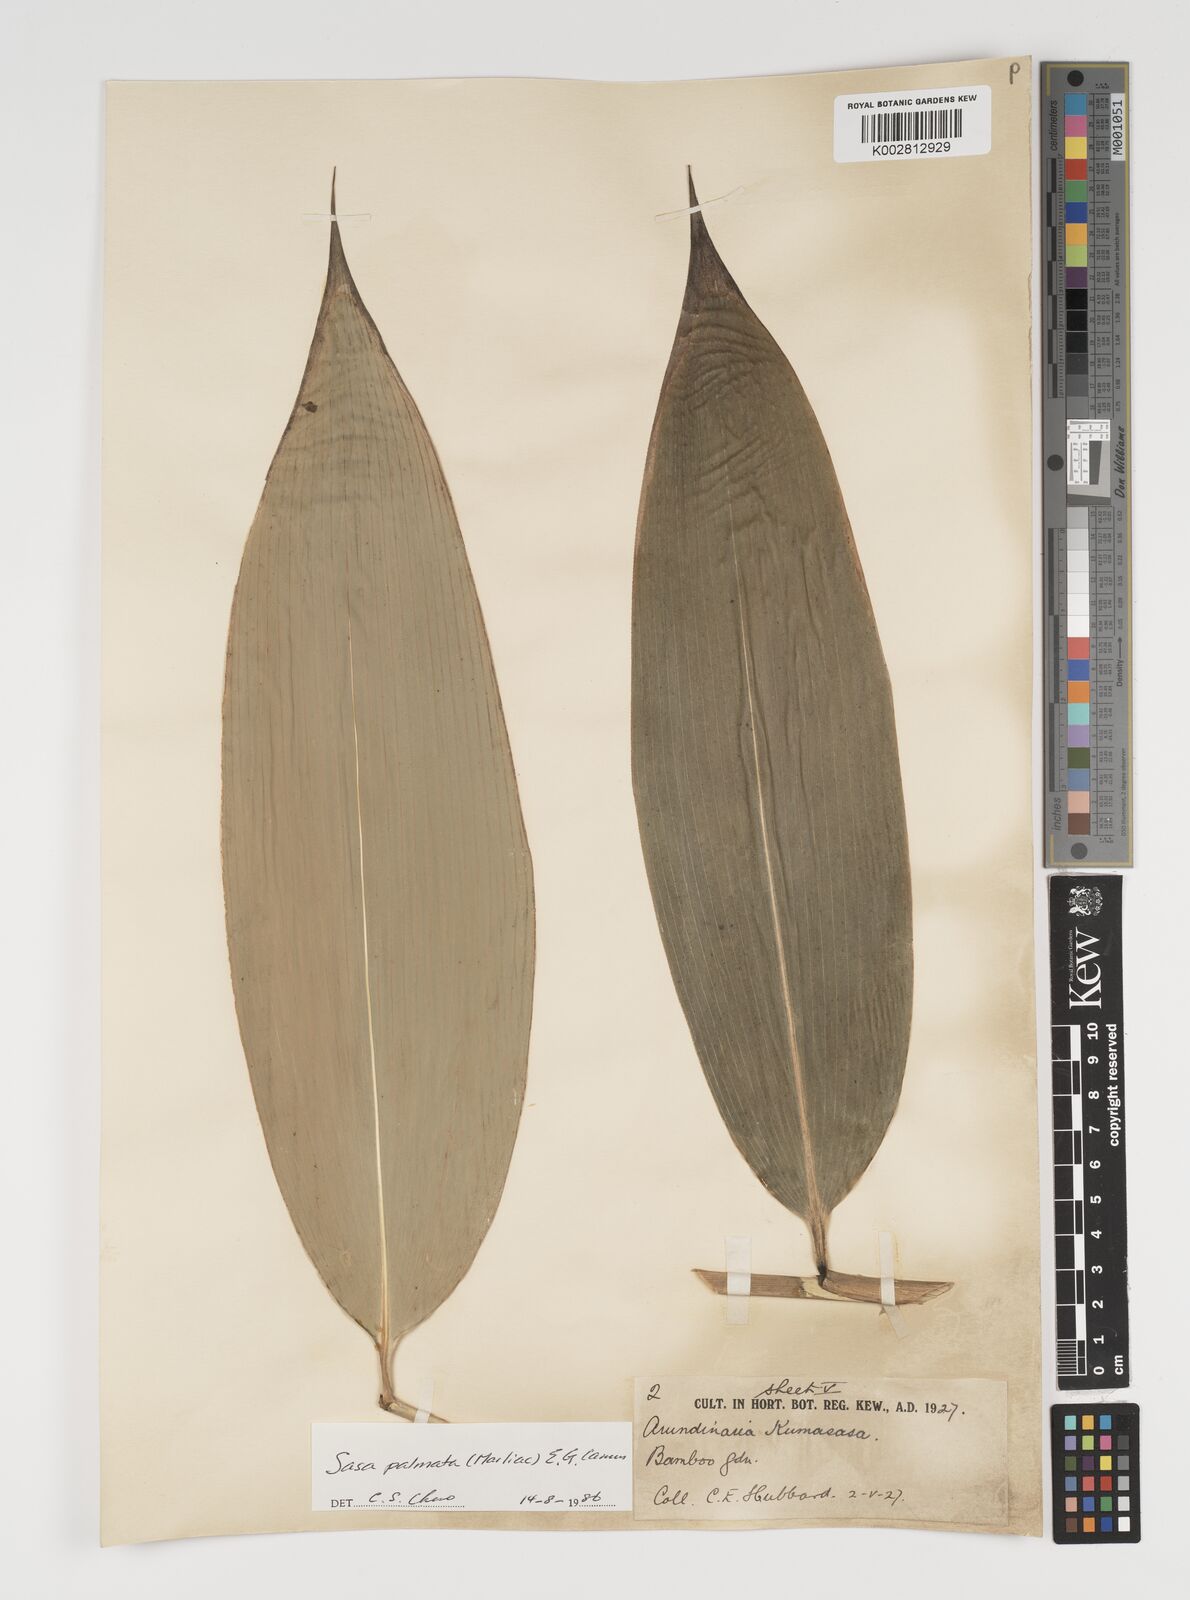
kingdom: Plantae
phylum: Tracheophyta
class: Liliopsida
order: Poales
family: Poaceae
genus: Sasa
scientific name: Sasa palmata
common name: Broad-leaved bamboo
